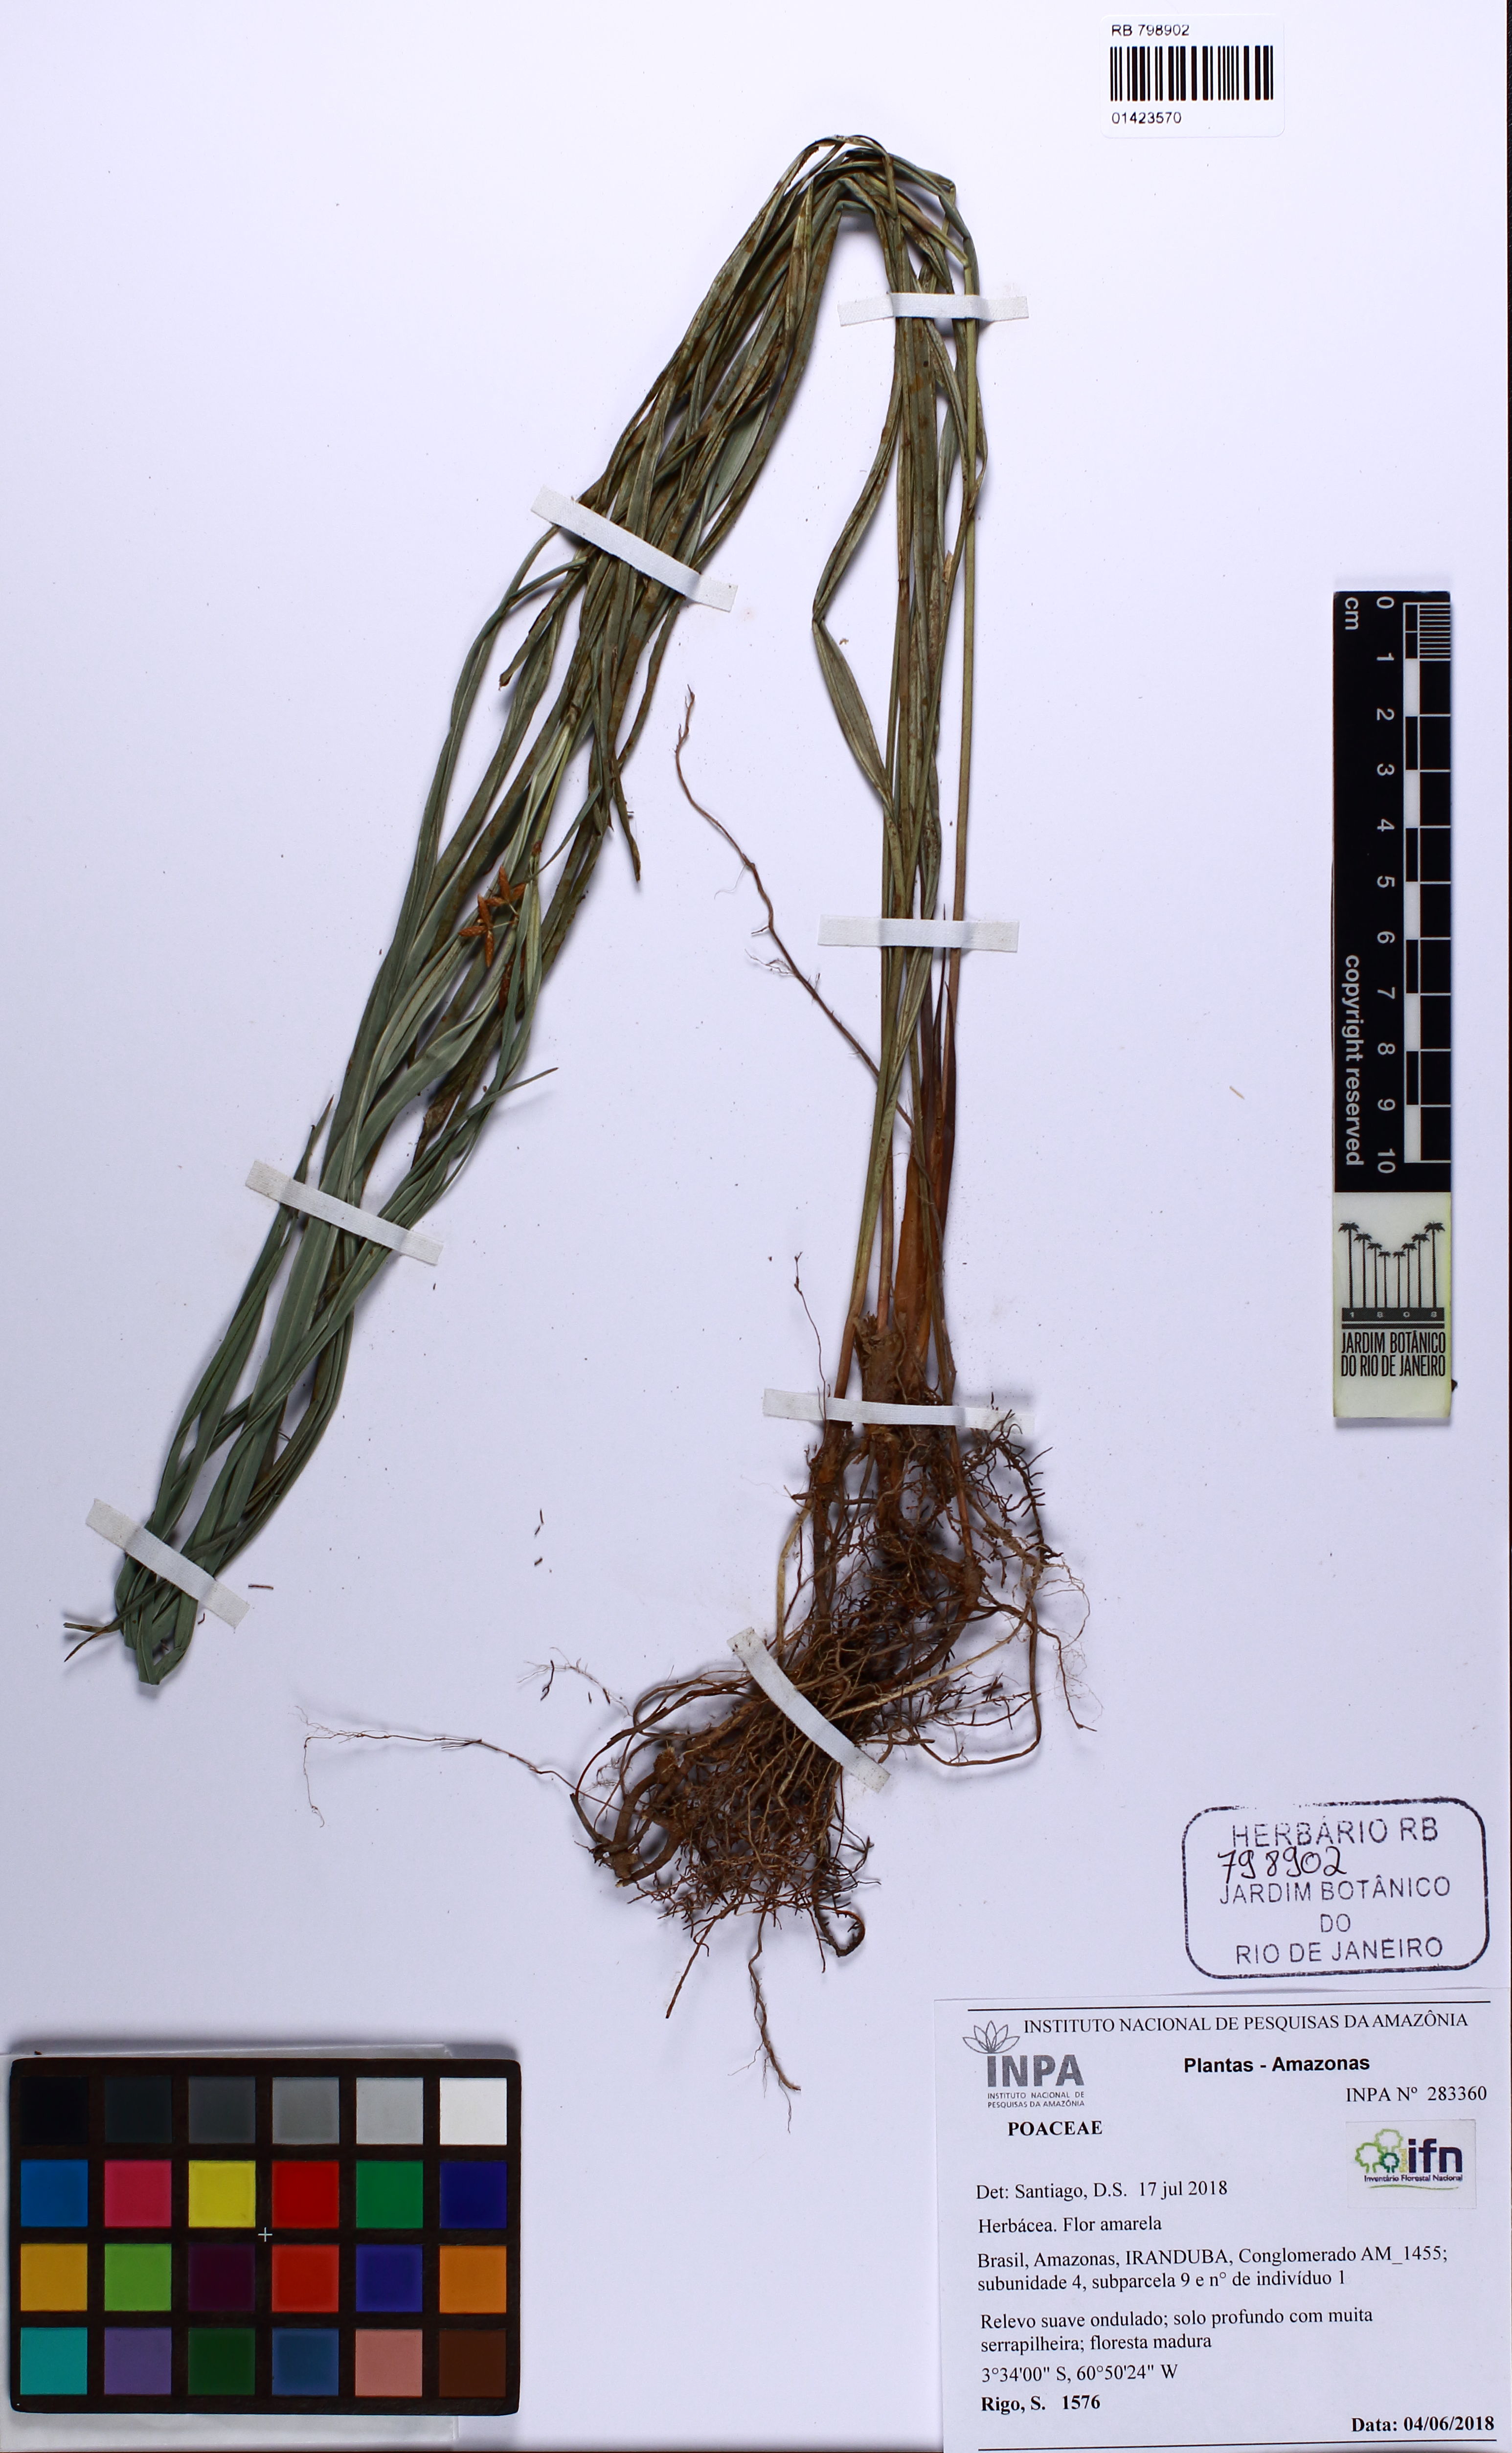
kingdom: Plantae
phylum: Tracheophyta
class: Liliopsida
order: Poales
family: Cyperaceae
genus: Hypolytrum
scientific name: Hypolytrum
